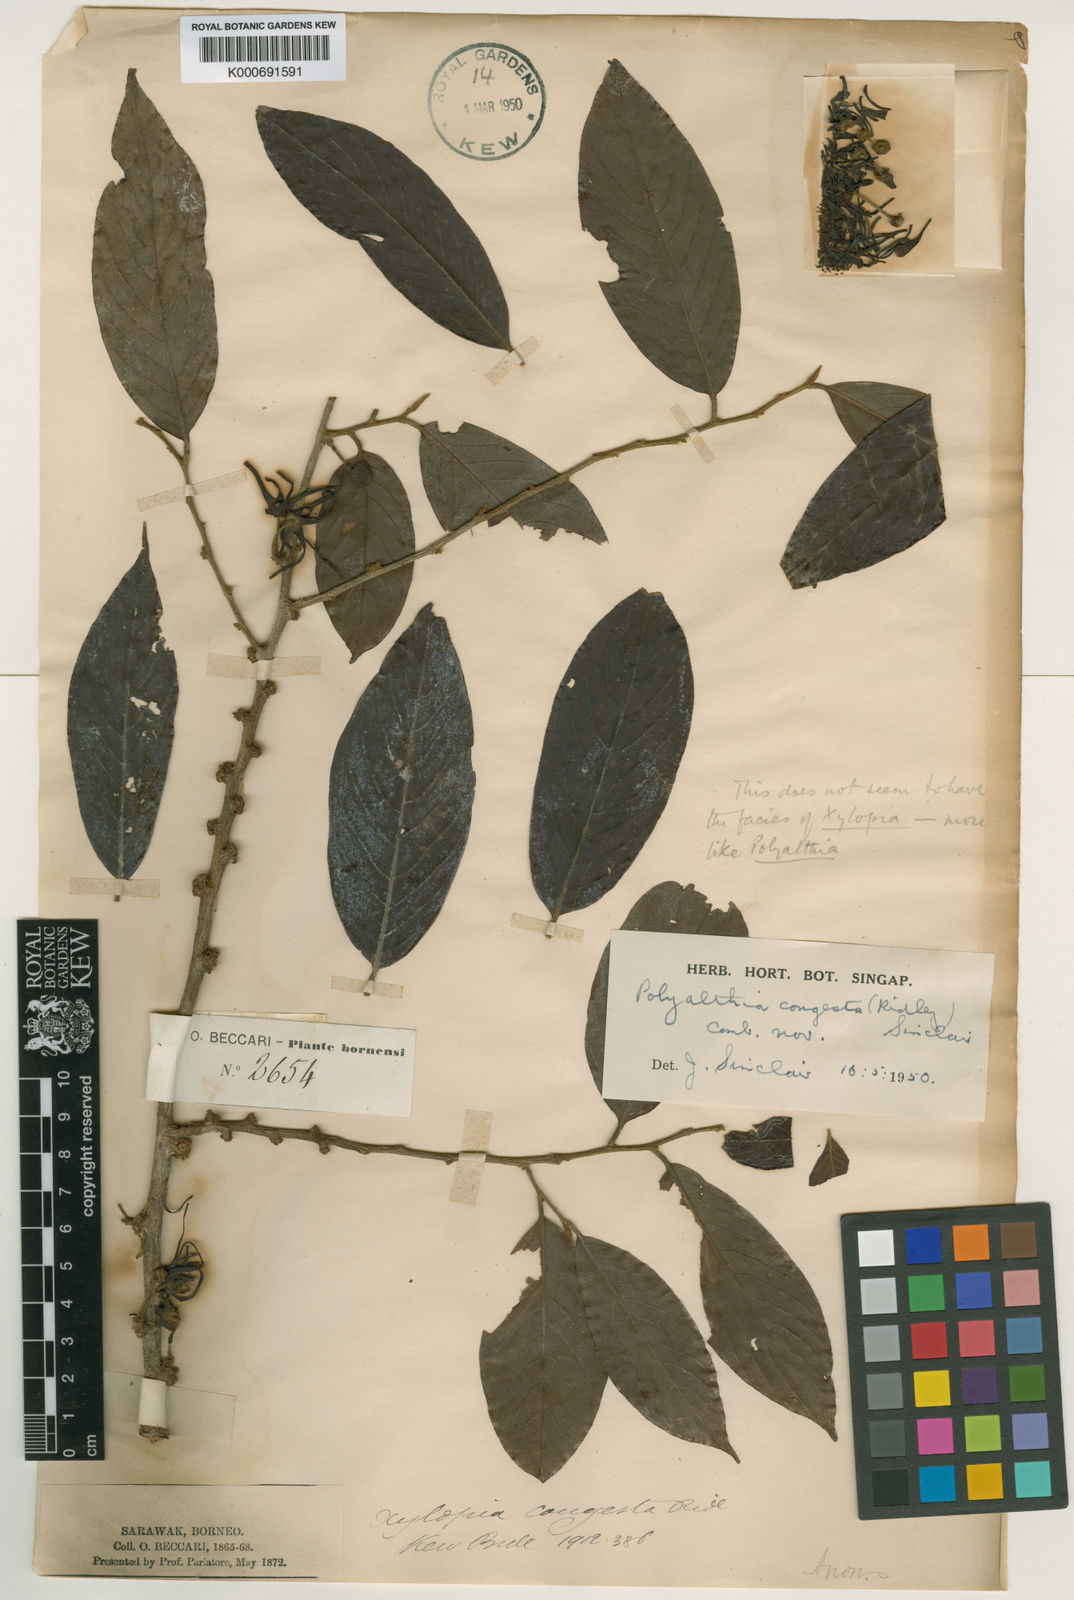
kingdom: Plantae
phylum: Tracheophyta
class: Magnoliopsida
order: Magnoliales
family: Annonaceae
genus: Polyalthia
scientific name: Polyalthia congesta
